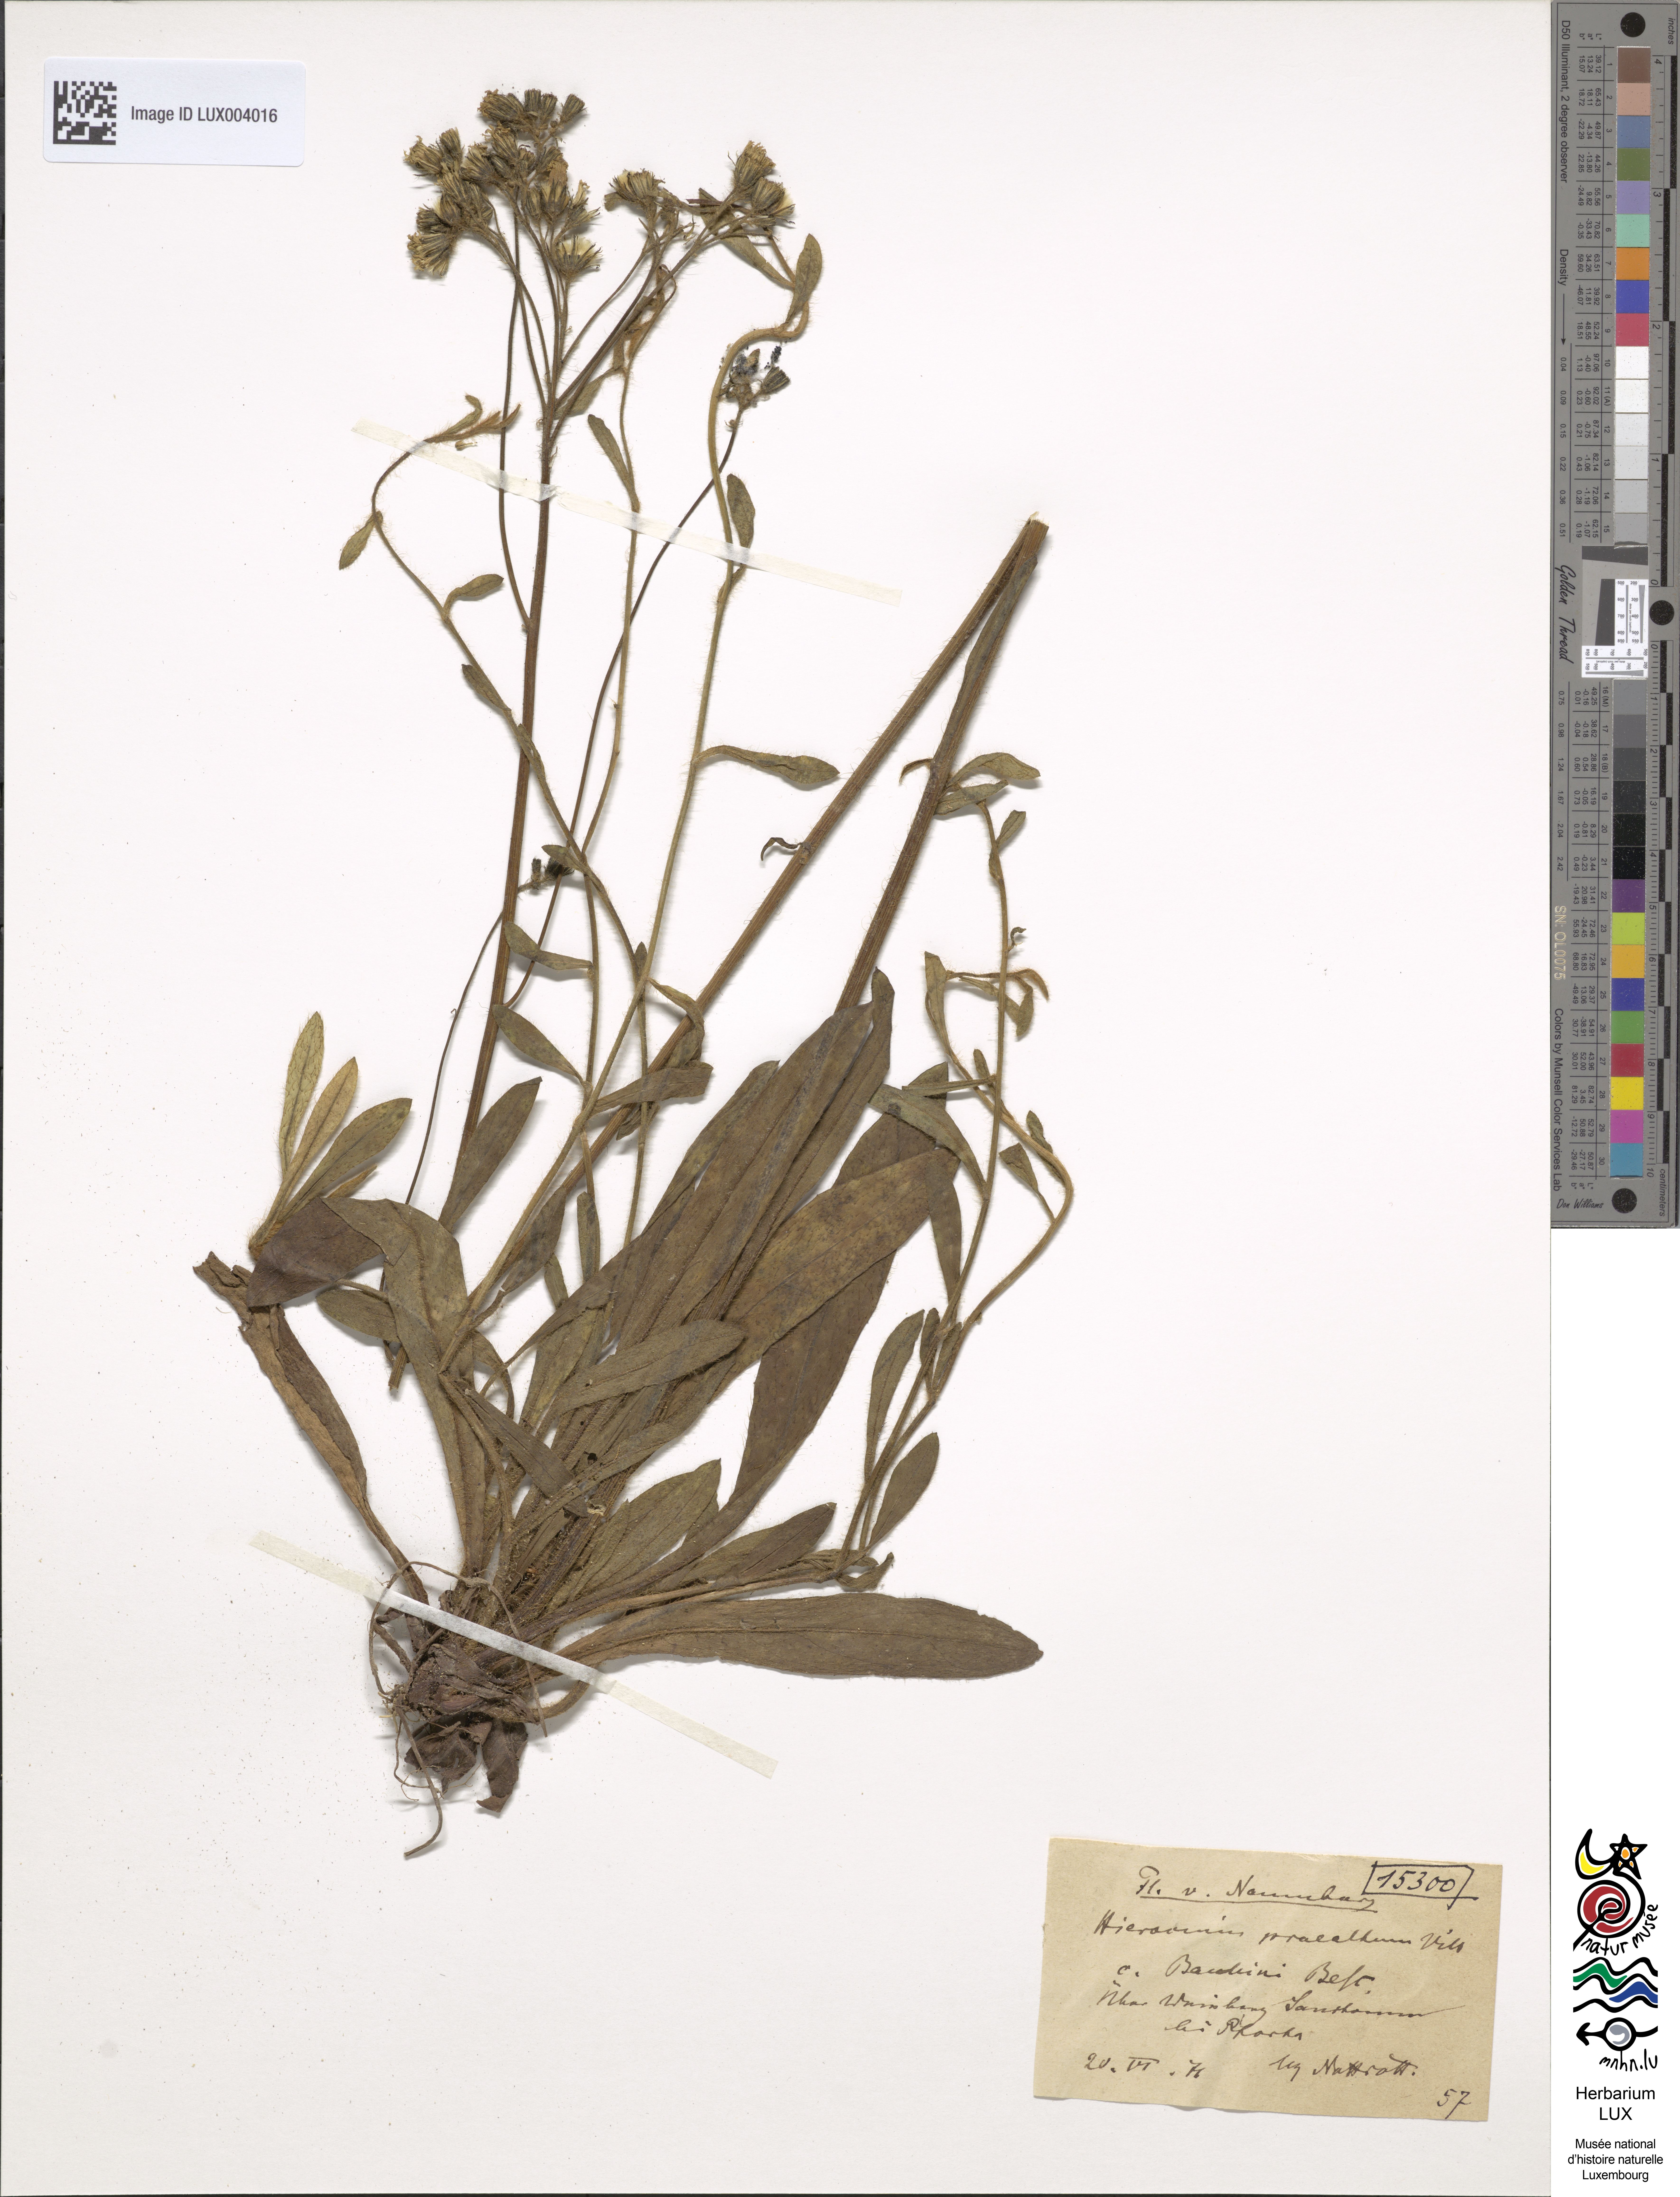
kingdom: Plantae
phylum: Tracheophyta
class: Magnoliopsida
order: Asterales
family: Asteraceae
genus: Pilosella
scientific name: Pilosella piloselloides
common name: Glaucous king-devil
